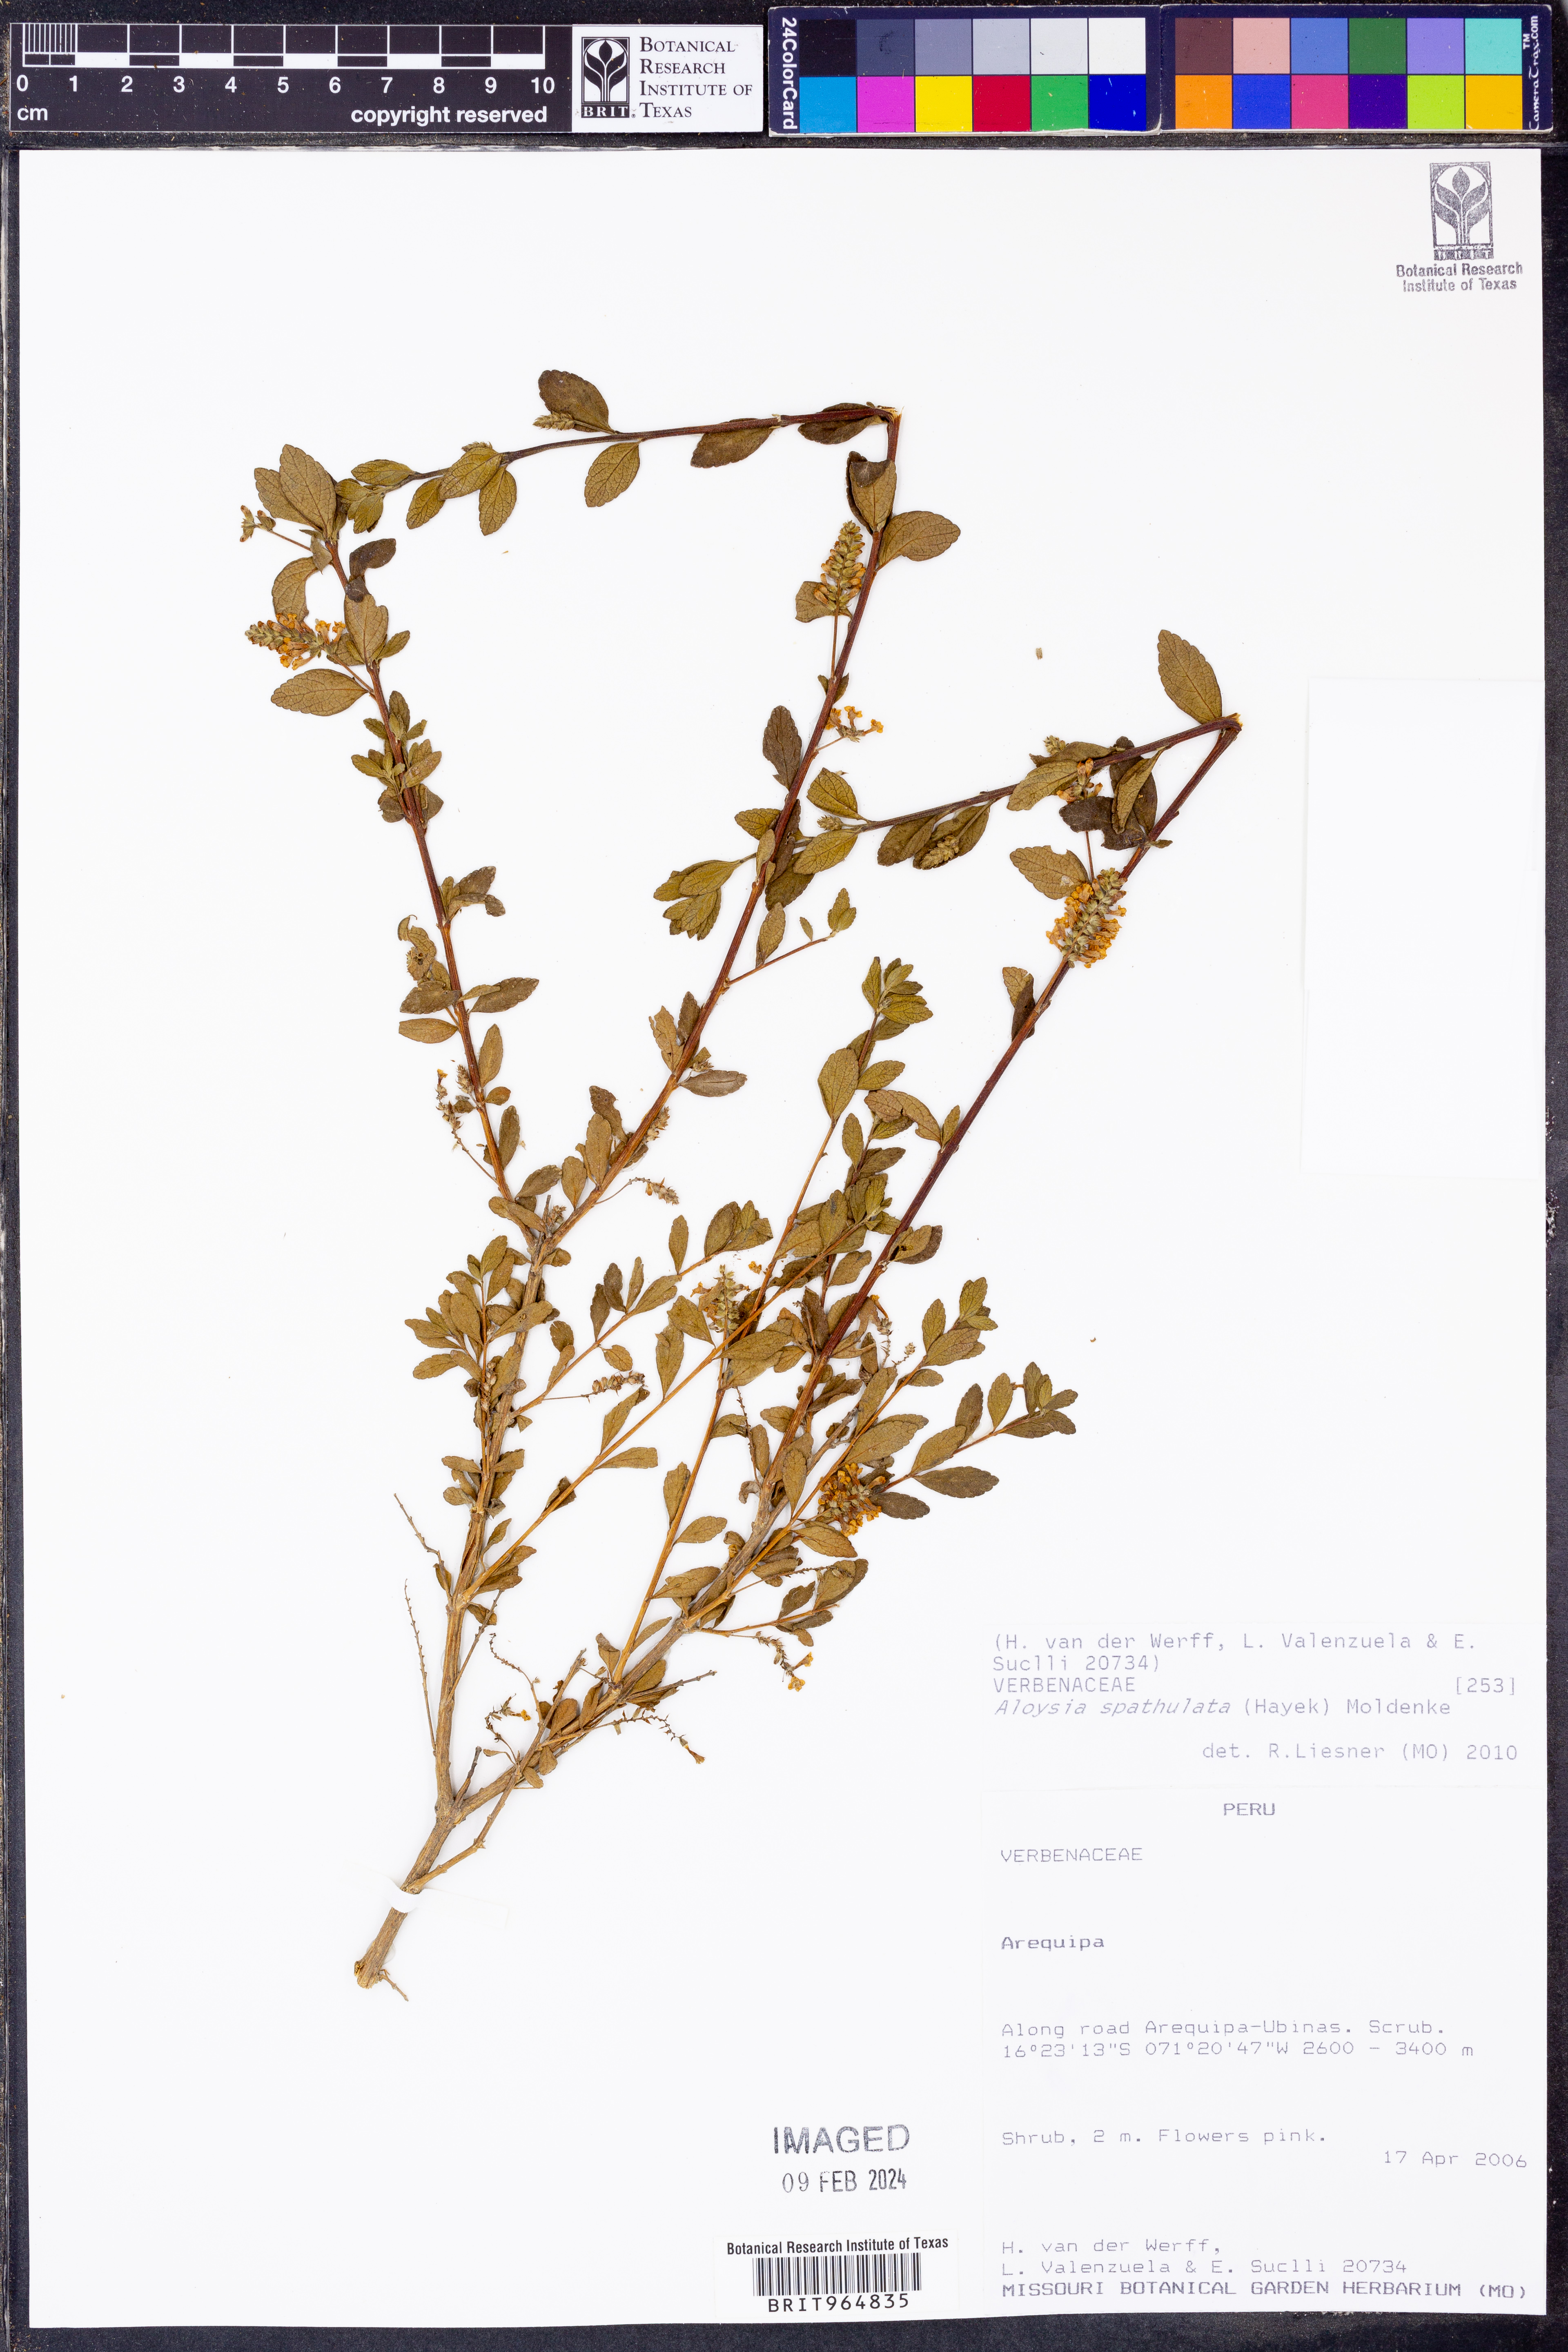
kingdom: Plantae
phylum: Tracheophyta
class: Magnoliopsida
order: Lamiales
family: Verbenaceae
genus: Aloysia
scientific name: Aloysia
